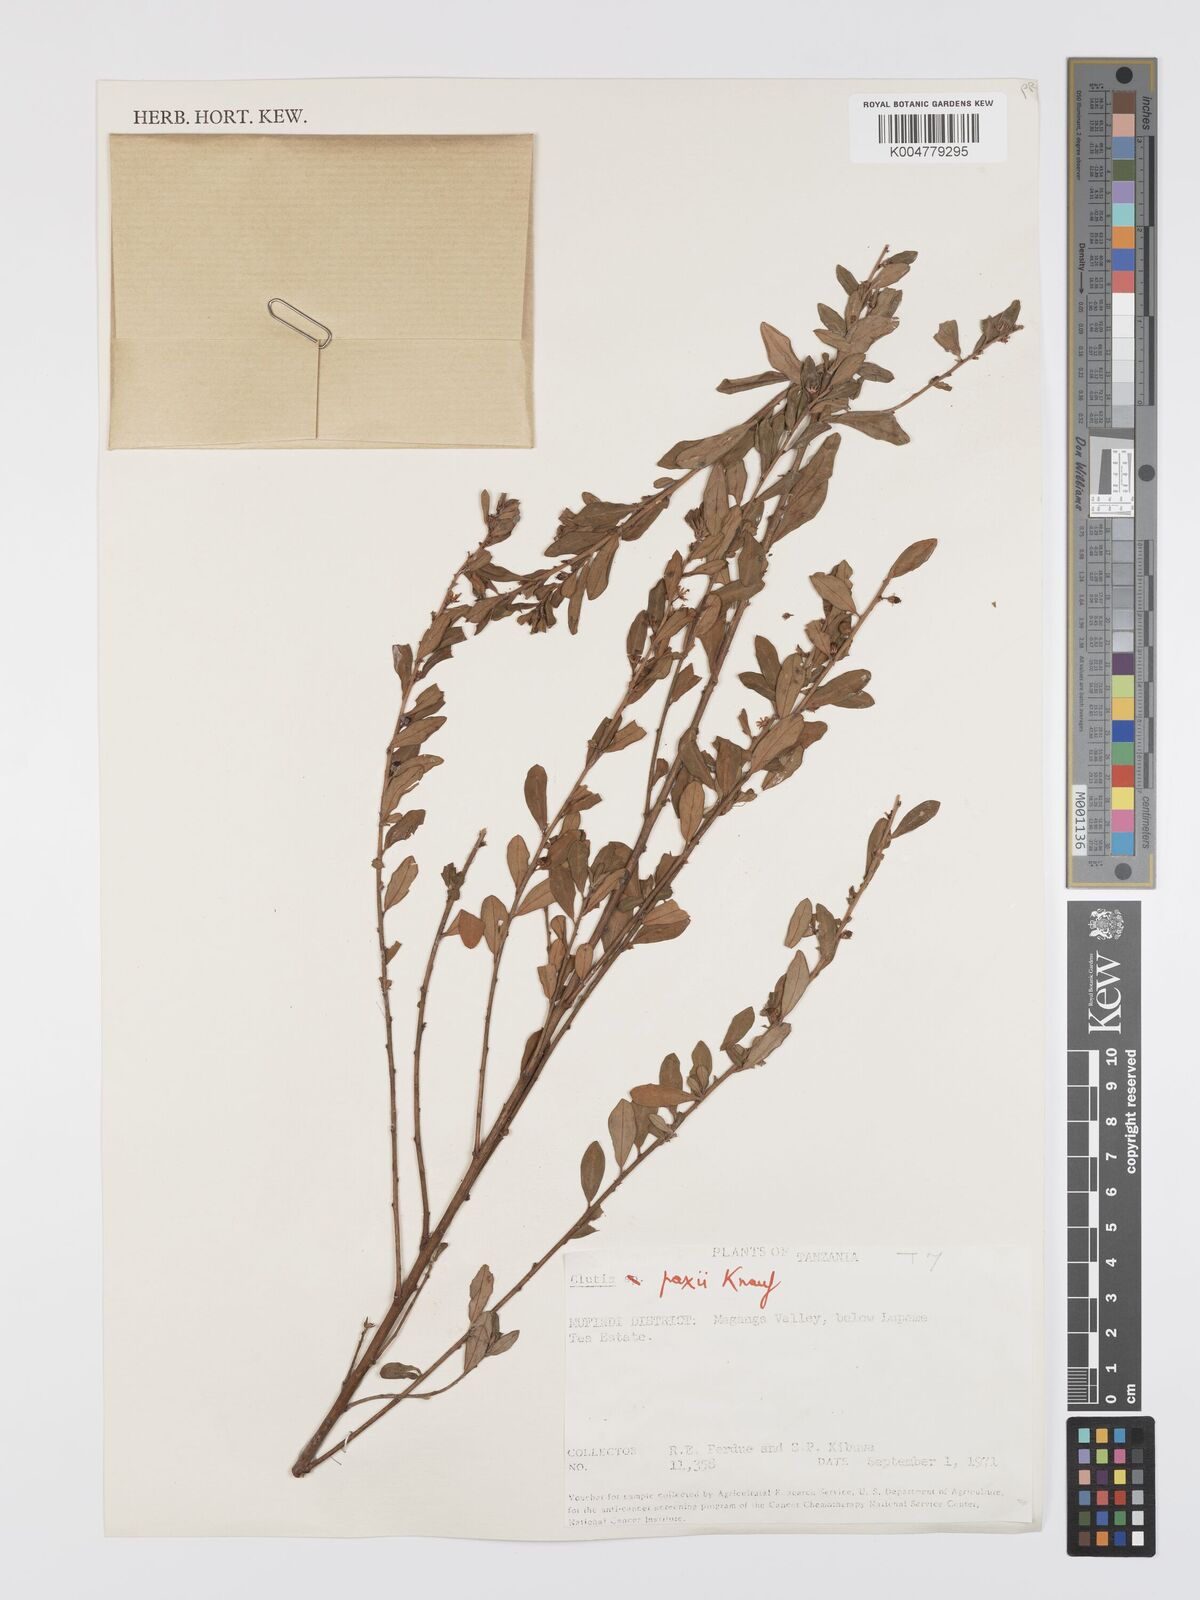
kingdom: Plantae
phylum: Tracheophyta
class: Magnoliopsida
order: Malpighiales
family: Peraceae
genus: Clutia
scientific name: Clutia paxii
